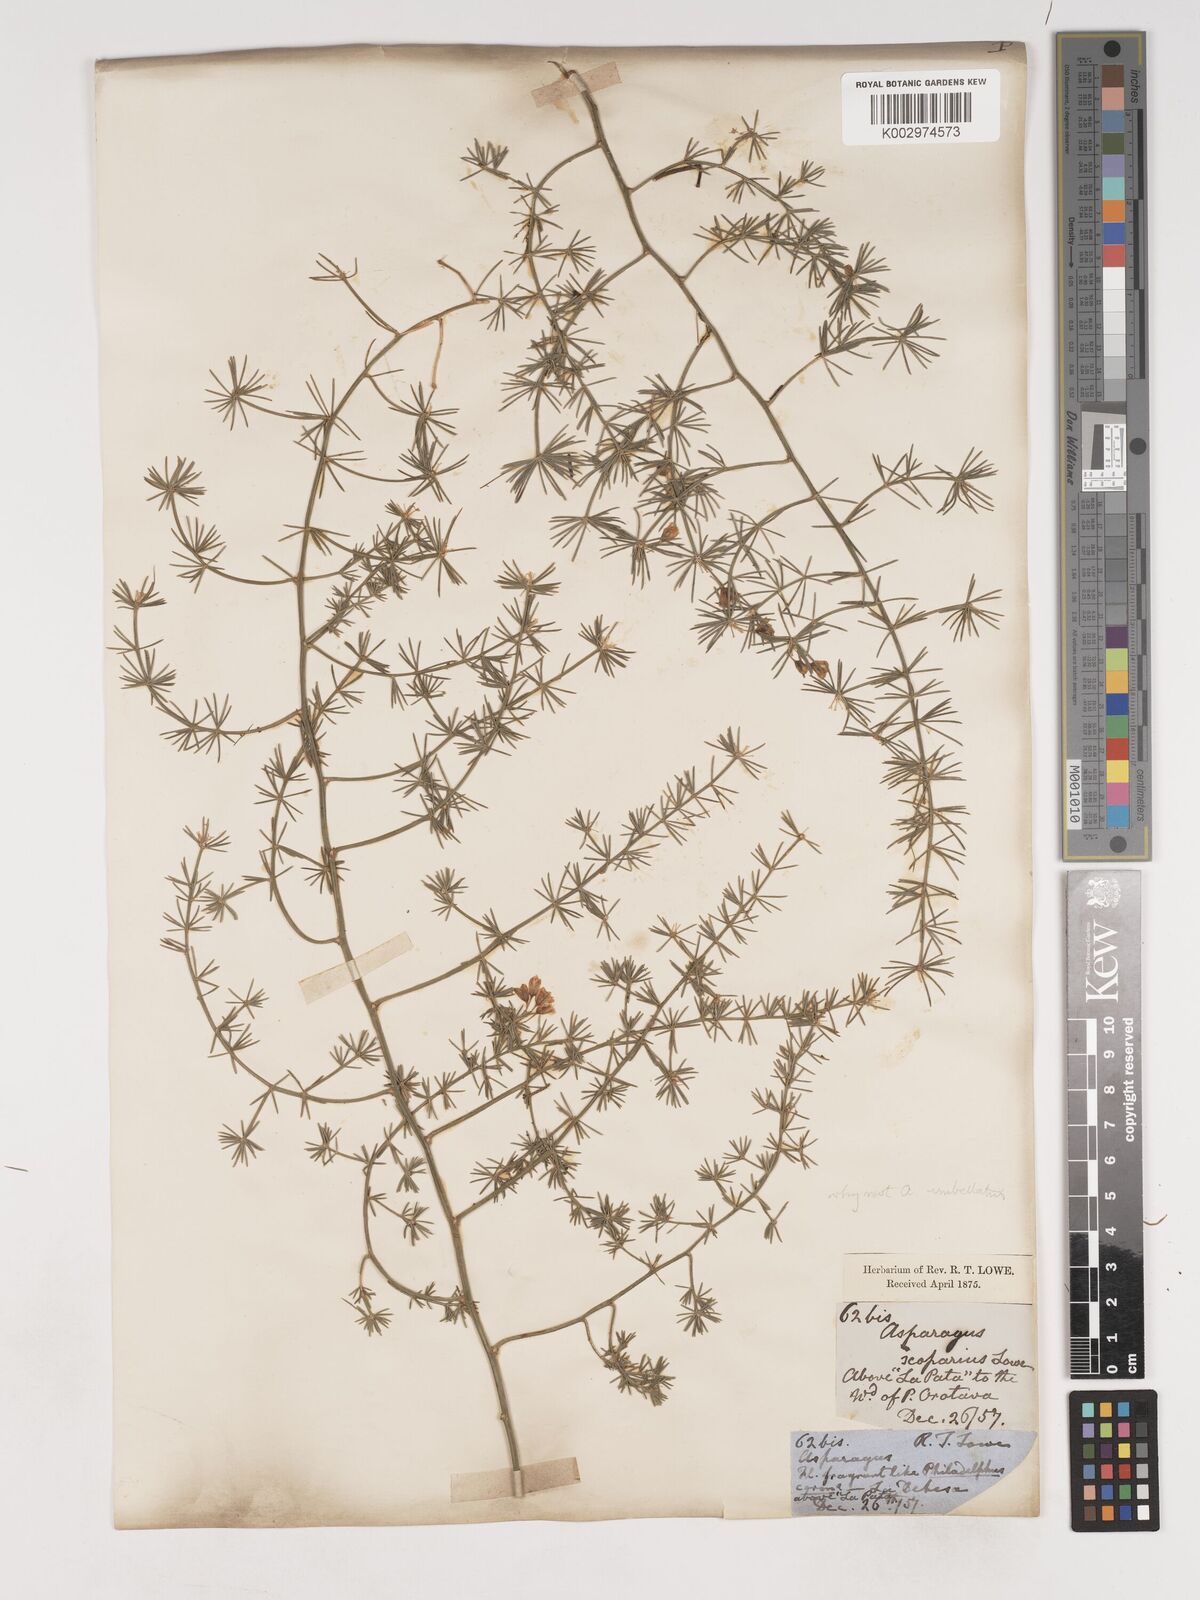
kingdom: Plantae
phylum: Tracheophyta
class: Liliopsida
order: Asparagales
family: Asparagaceae
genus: Asparagus
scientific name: Asparagus umbellatus
